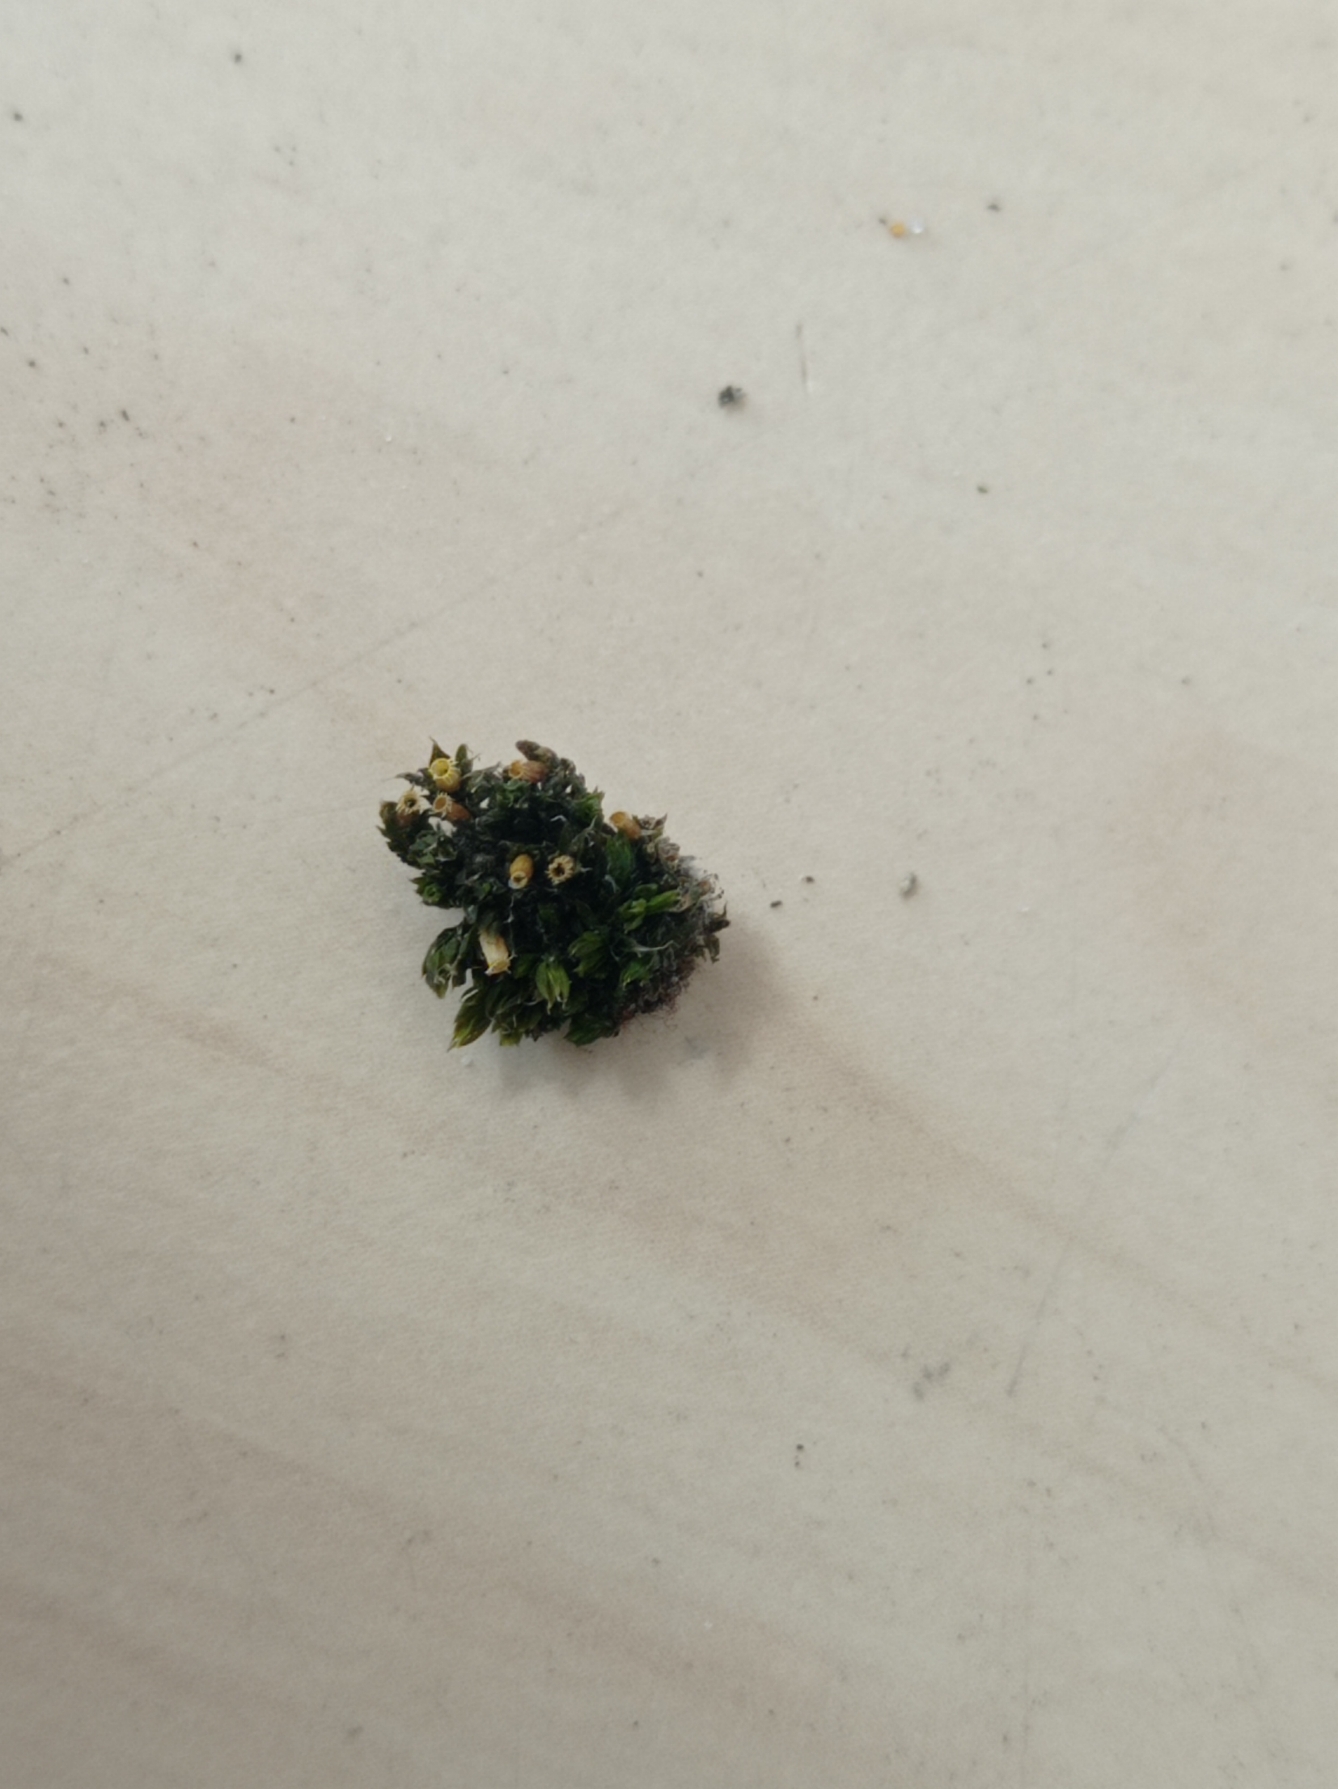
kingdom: Plantae
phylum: Bryophyta
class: Bryopsida
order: Orthotrichales
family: Orthotrichaceae
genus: Orthotrichum
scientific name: Orthotrichum diaphanum
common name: Hårspidset furehætte
